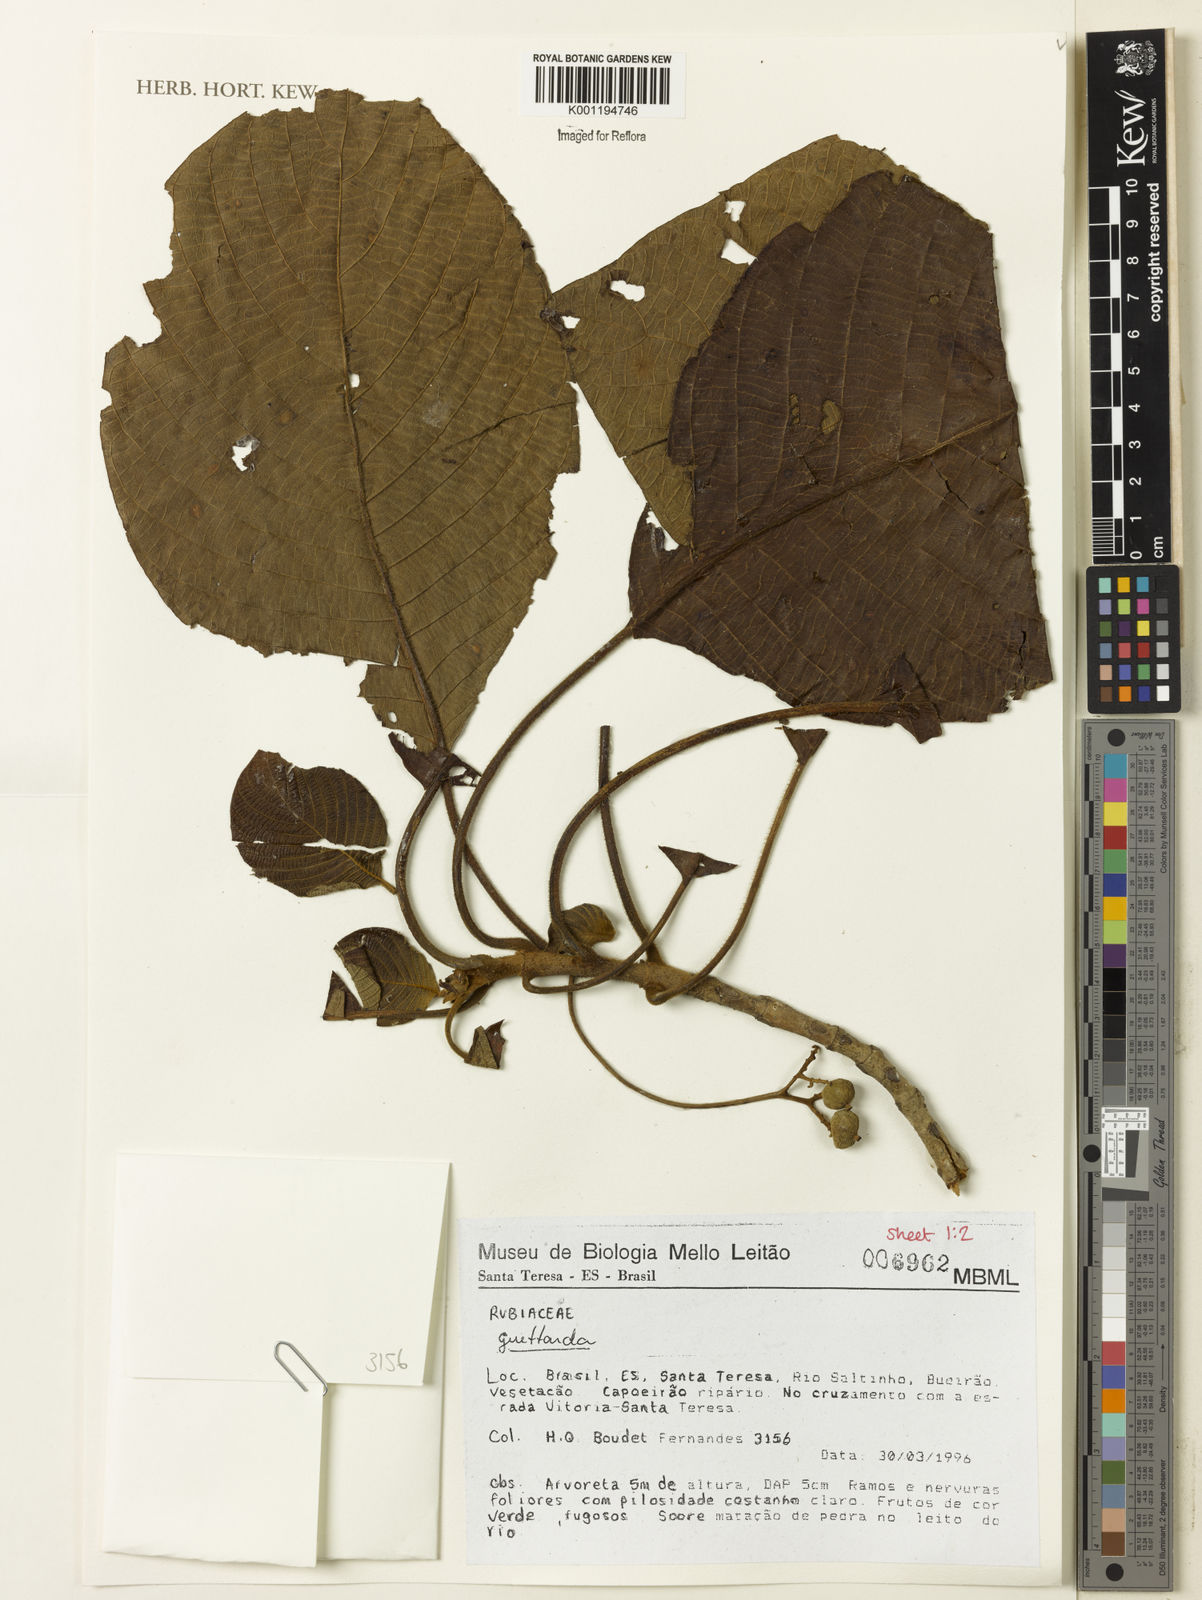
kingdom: Plantae
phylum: Tracheophyta
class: Magnoliopsida
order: Gentianales
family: Rubiaceae
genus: Guettarda
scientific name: Guettarda
